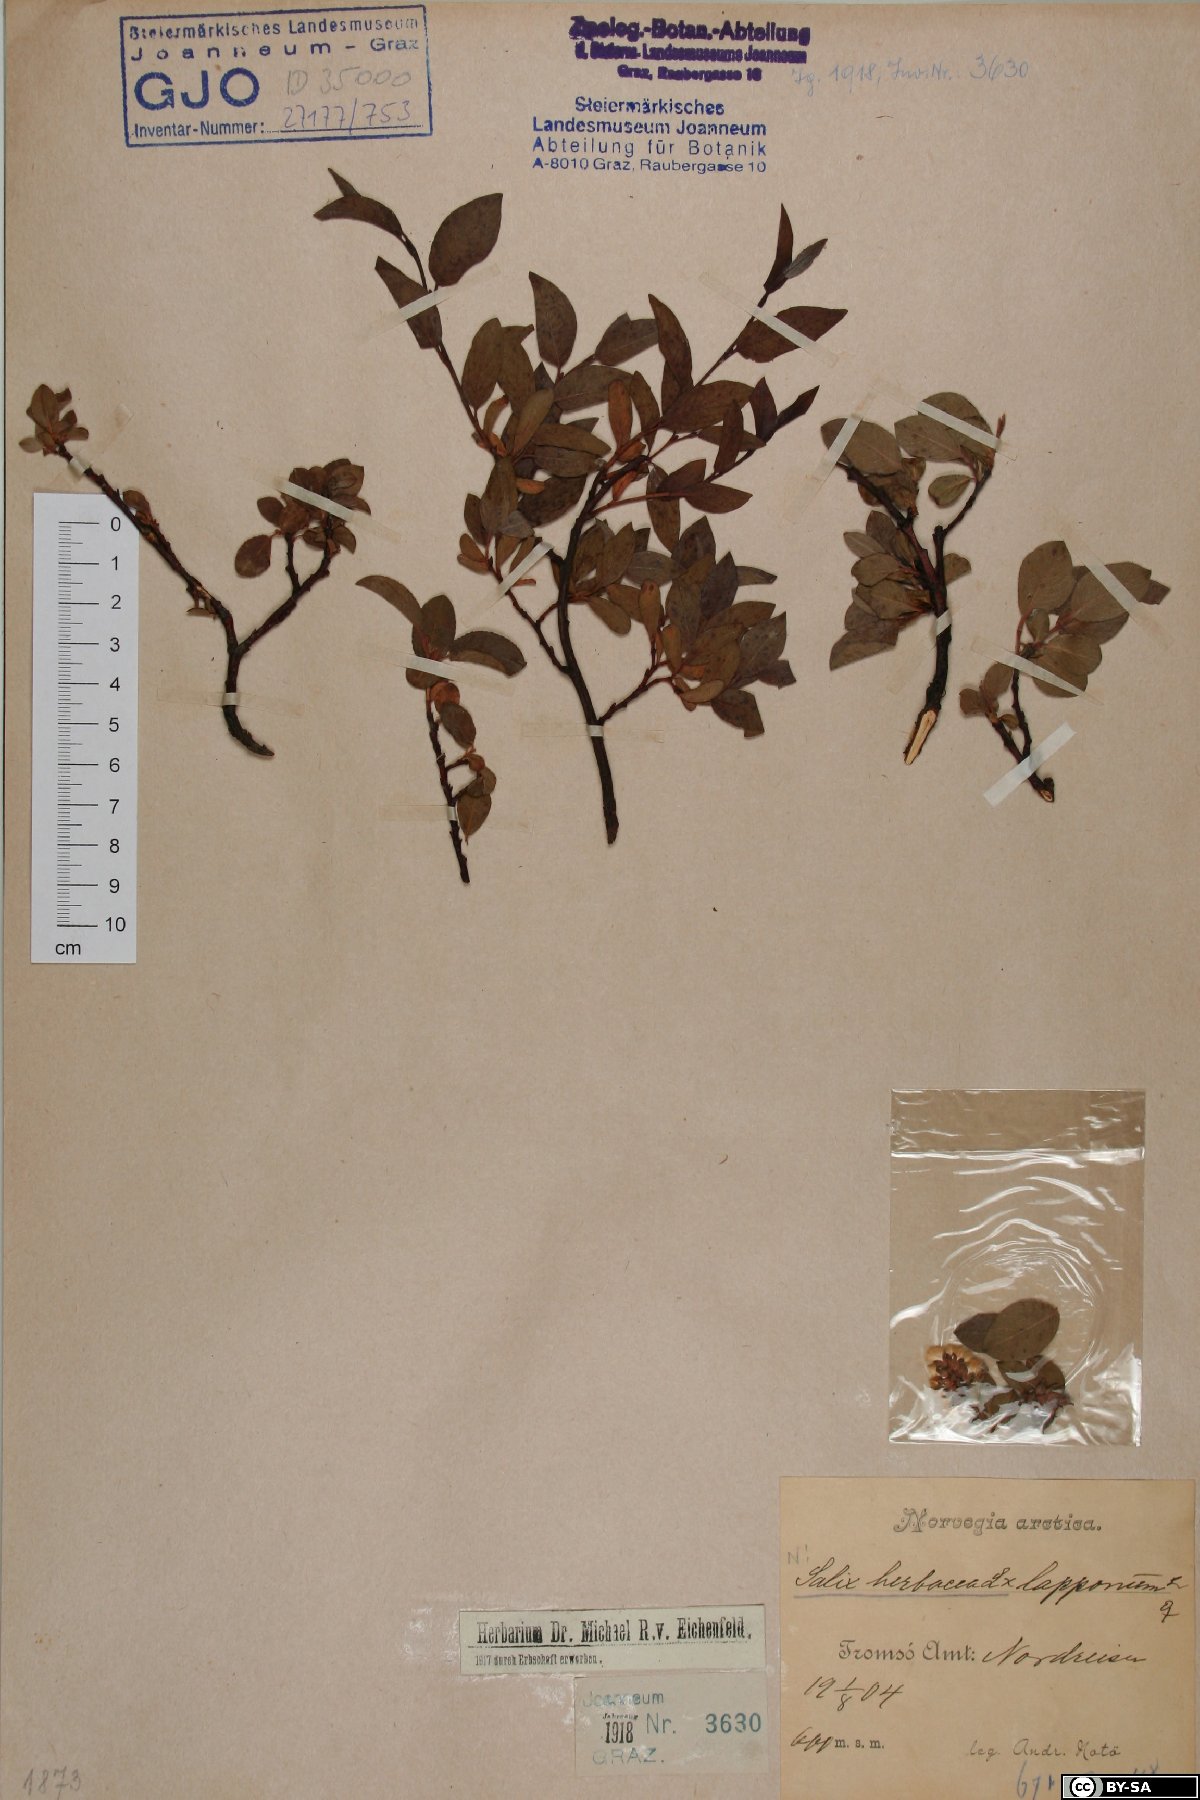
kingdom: Plantae
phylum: Tracheophyta
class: Magnoliopsida
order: Malpighiales
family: Salicaceae
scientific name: Salicaceae
